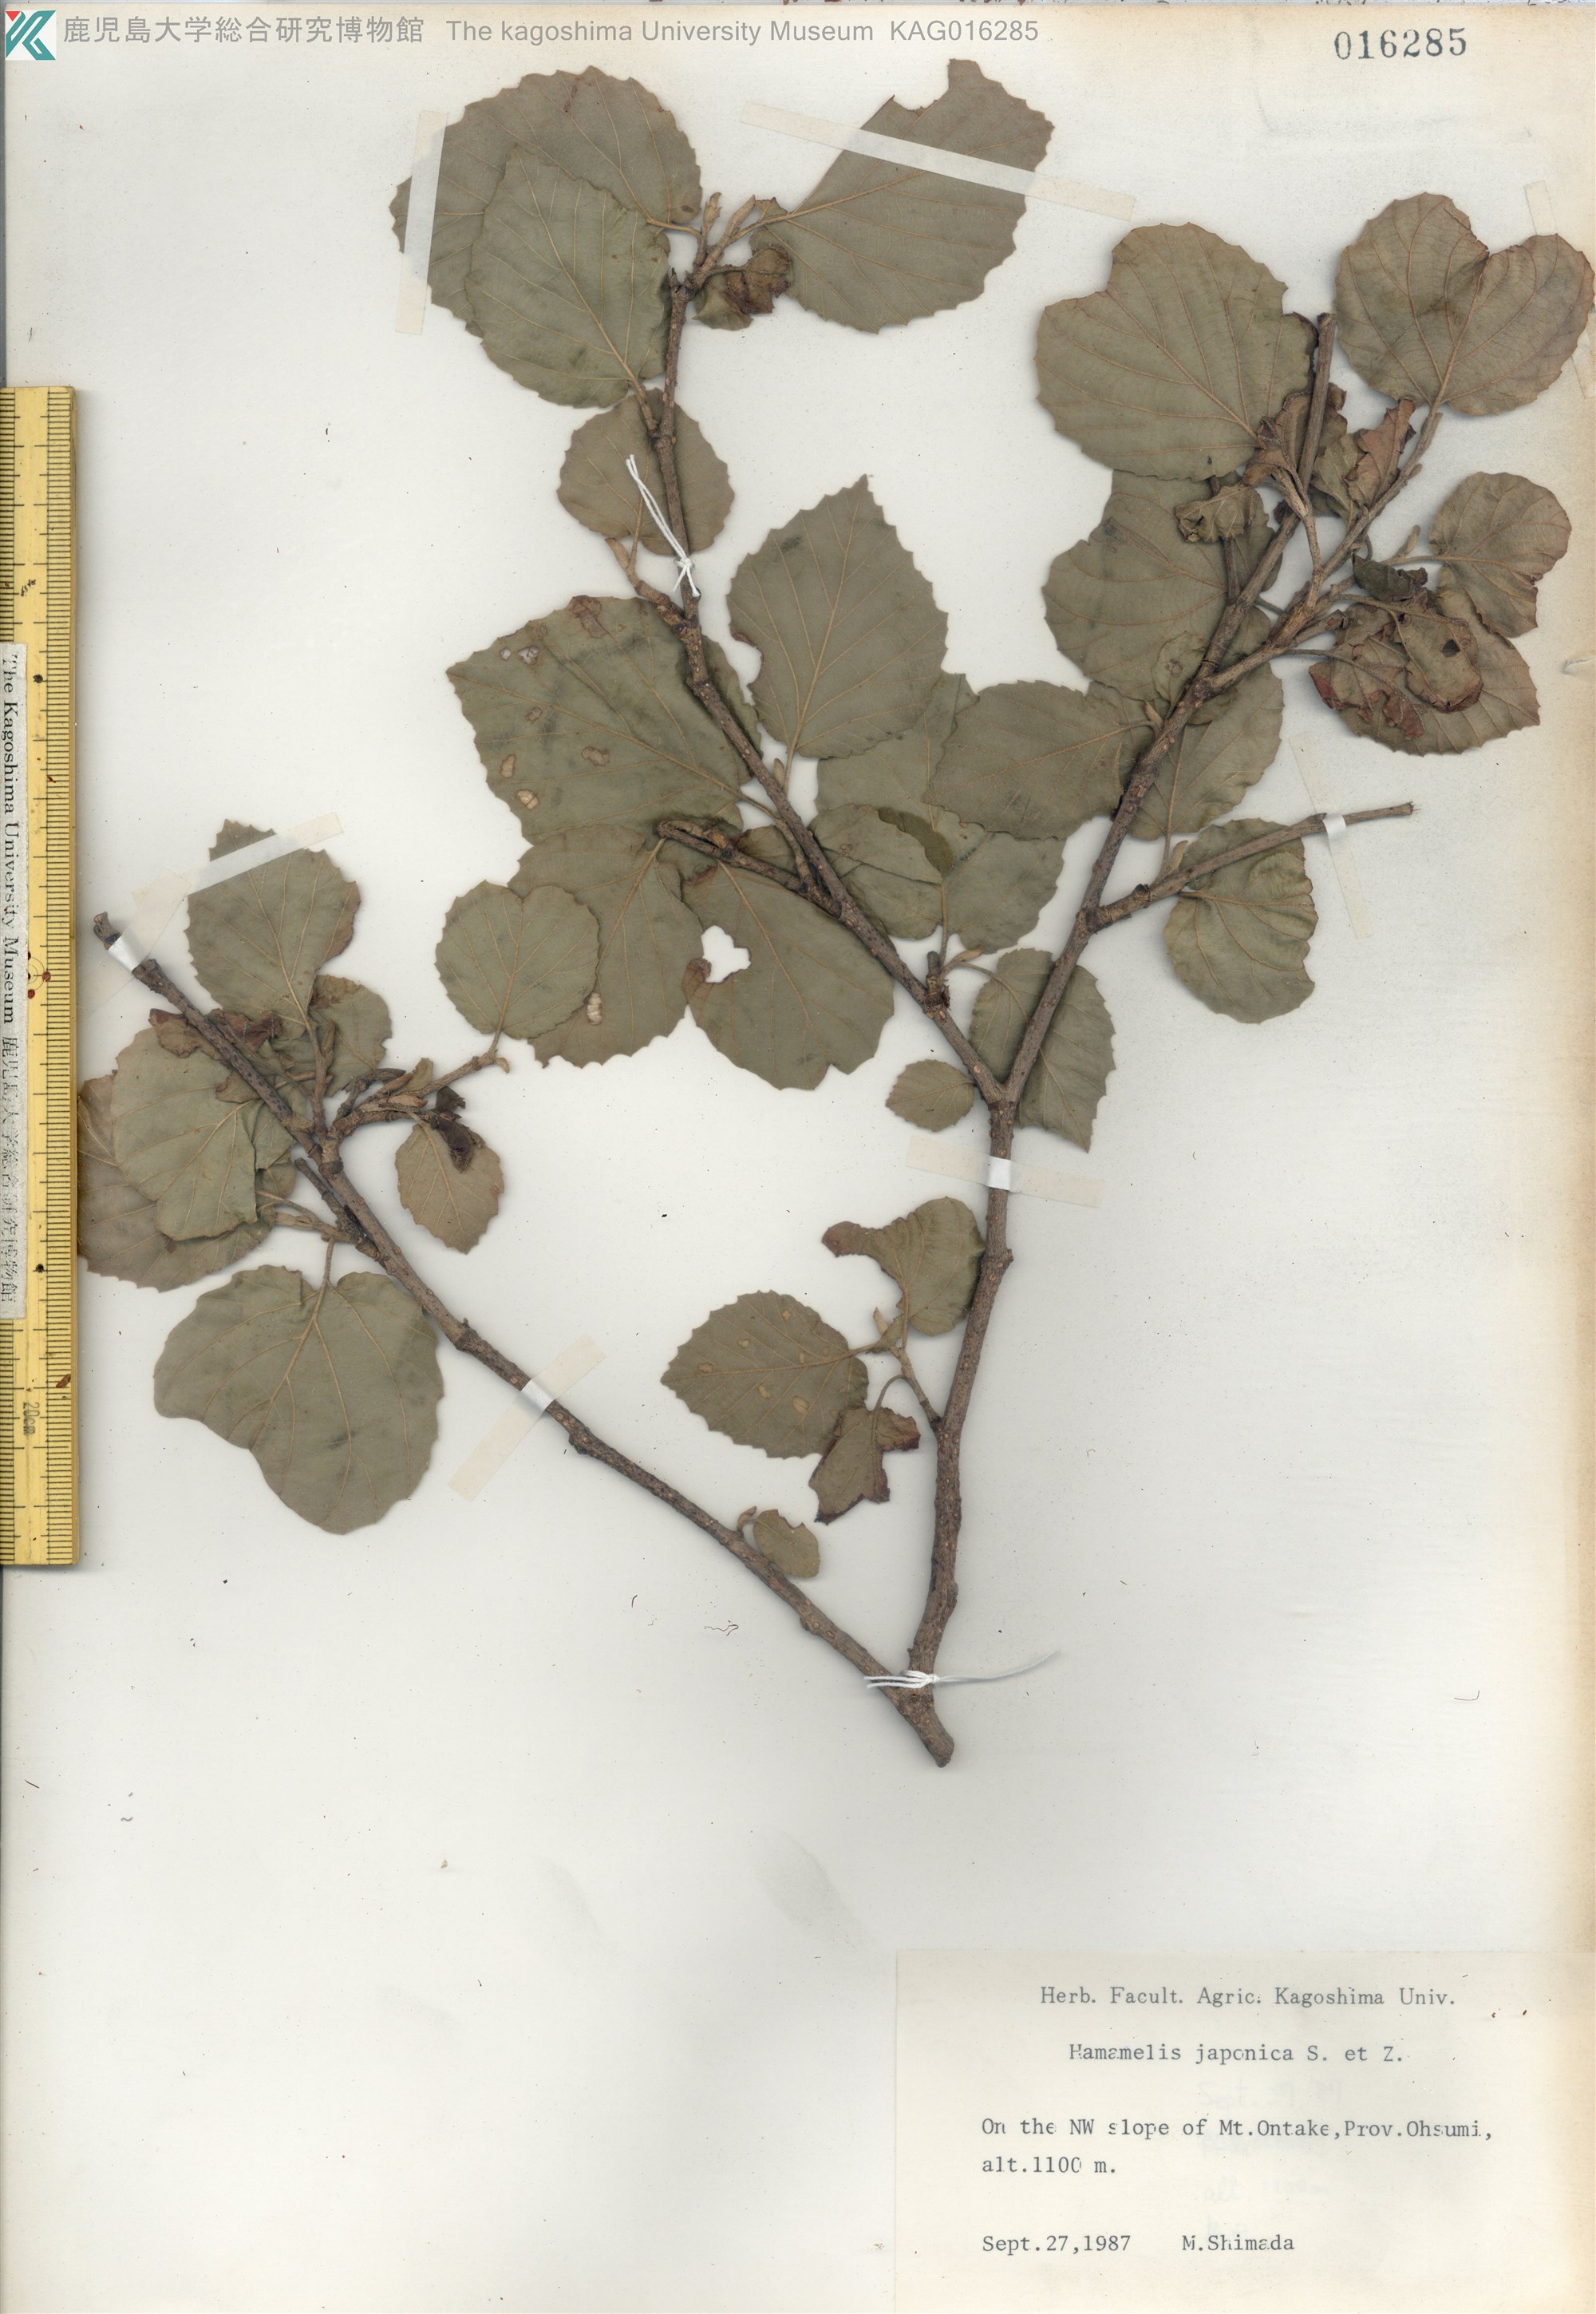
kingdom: Plantae
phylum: Tracheophyta
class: Magnoliopsida
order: Saxifragales
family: Hamamelidaceae
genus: Hamamelis
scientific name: Hamamelis japonica
